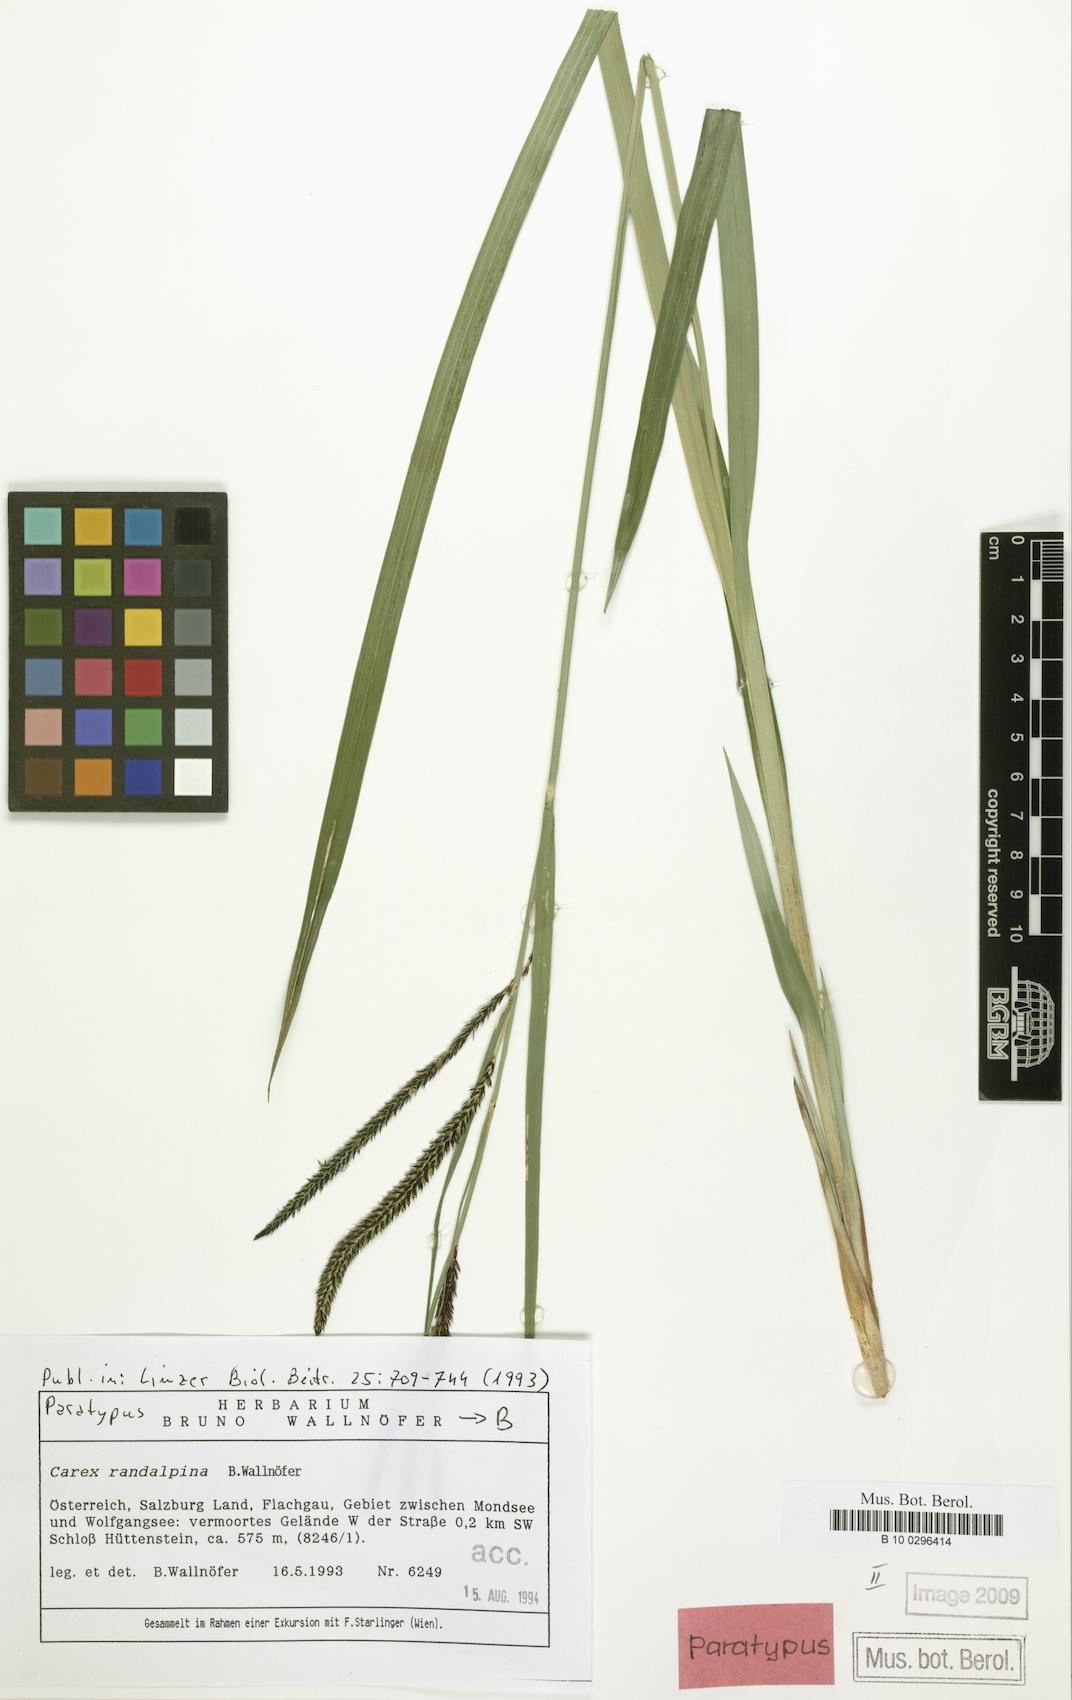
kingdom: Plantae
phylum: Tracheophyta
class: Liliopsida
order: Poales
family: Cyperaceae
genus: Carex
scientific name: Carex randalpina
